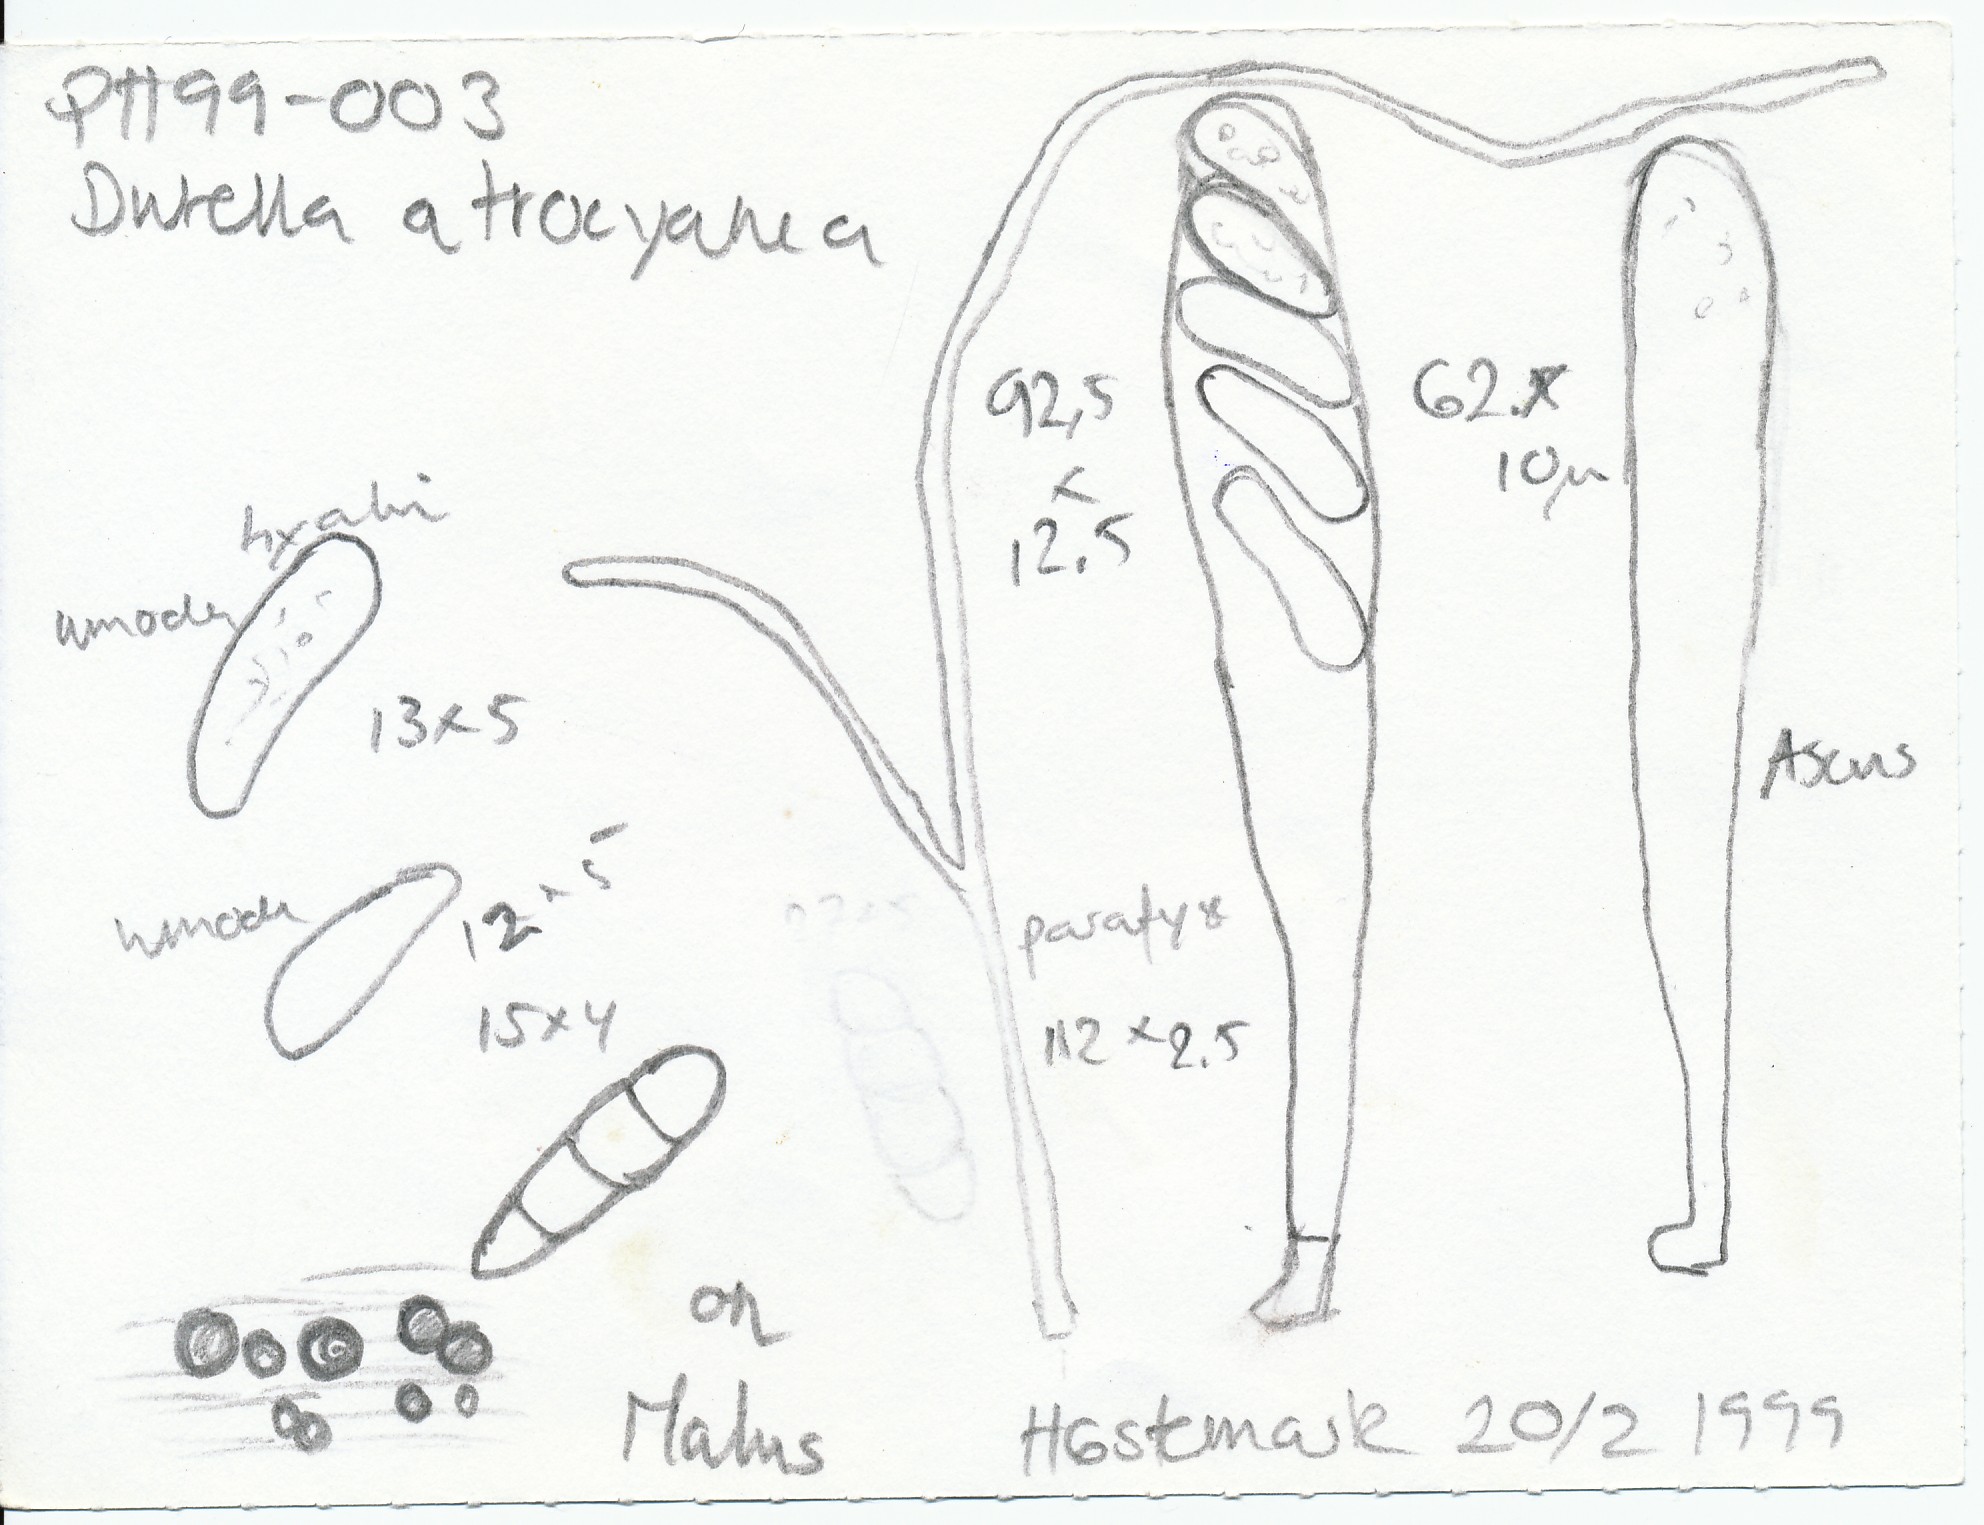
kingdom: Fungi
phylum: Ascomycota
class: Leotiomycetes
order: Helotiales
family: Helotiaceae
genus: Durella
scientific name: Durella atrocyanea
